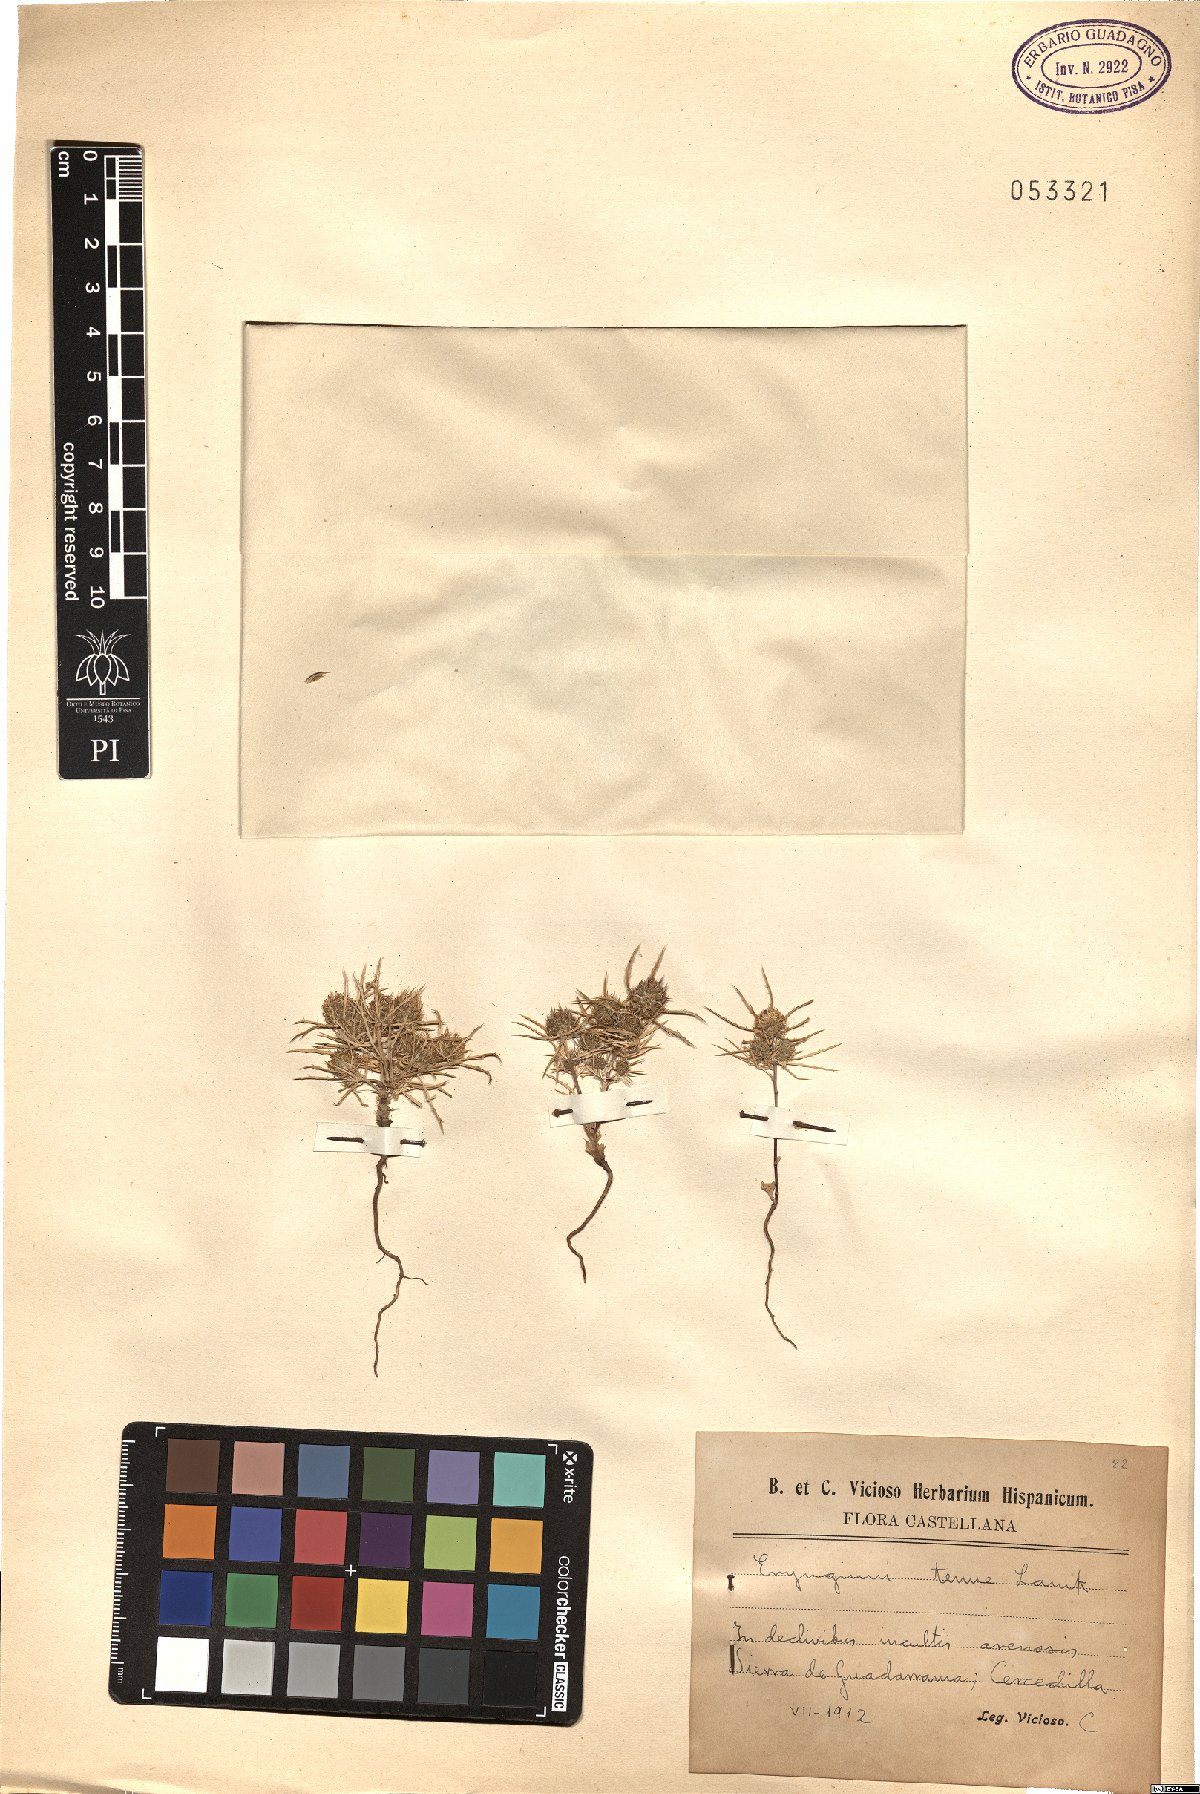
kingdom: Plantae
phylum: Tracheophyta
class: Magnoliopsida
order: Apiales
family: Apiaceae
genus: Eryngium
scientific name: Eryngium tenue
